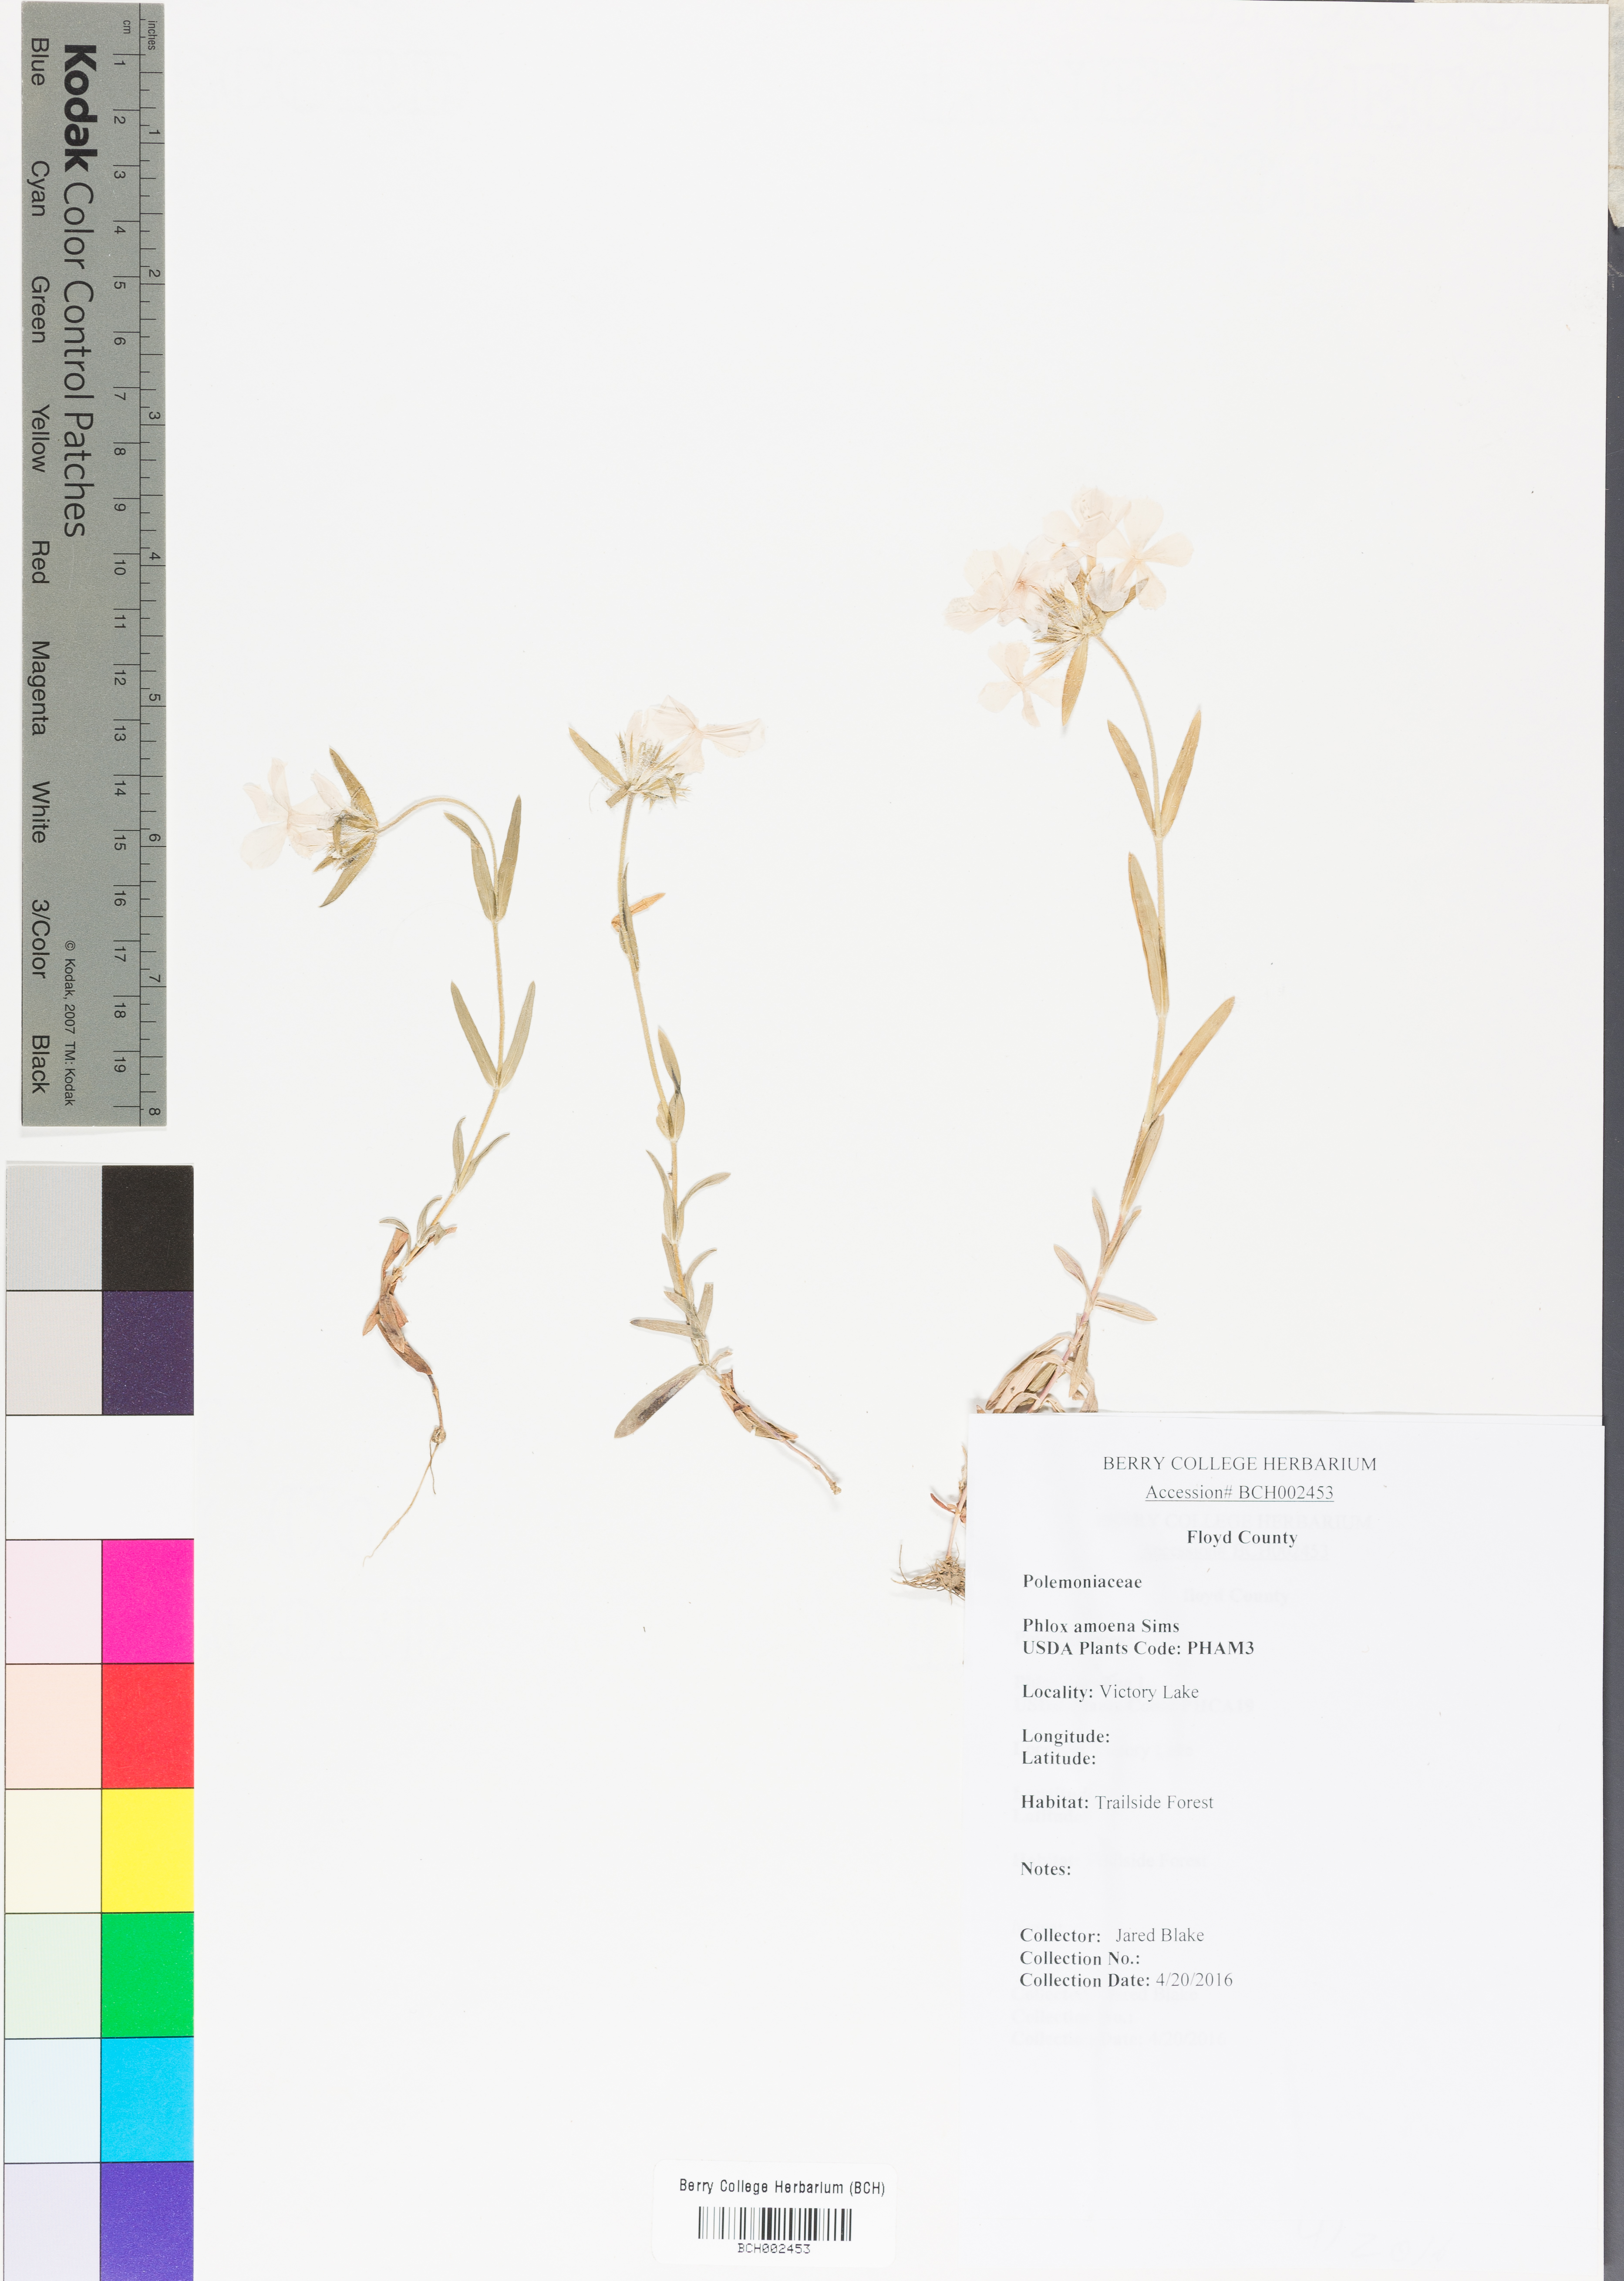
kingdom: Plantae
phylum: Tracheophyta
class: Magnoliopsida
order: Ericales
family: Polemoniaceae
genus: Phlox
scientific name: Phlox amoena
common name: Hairy phlox
